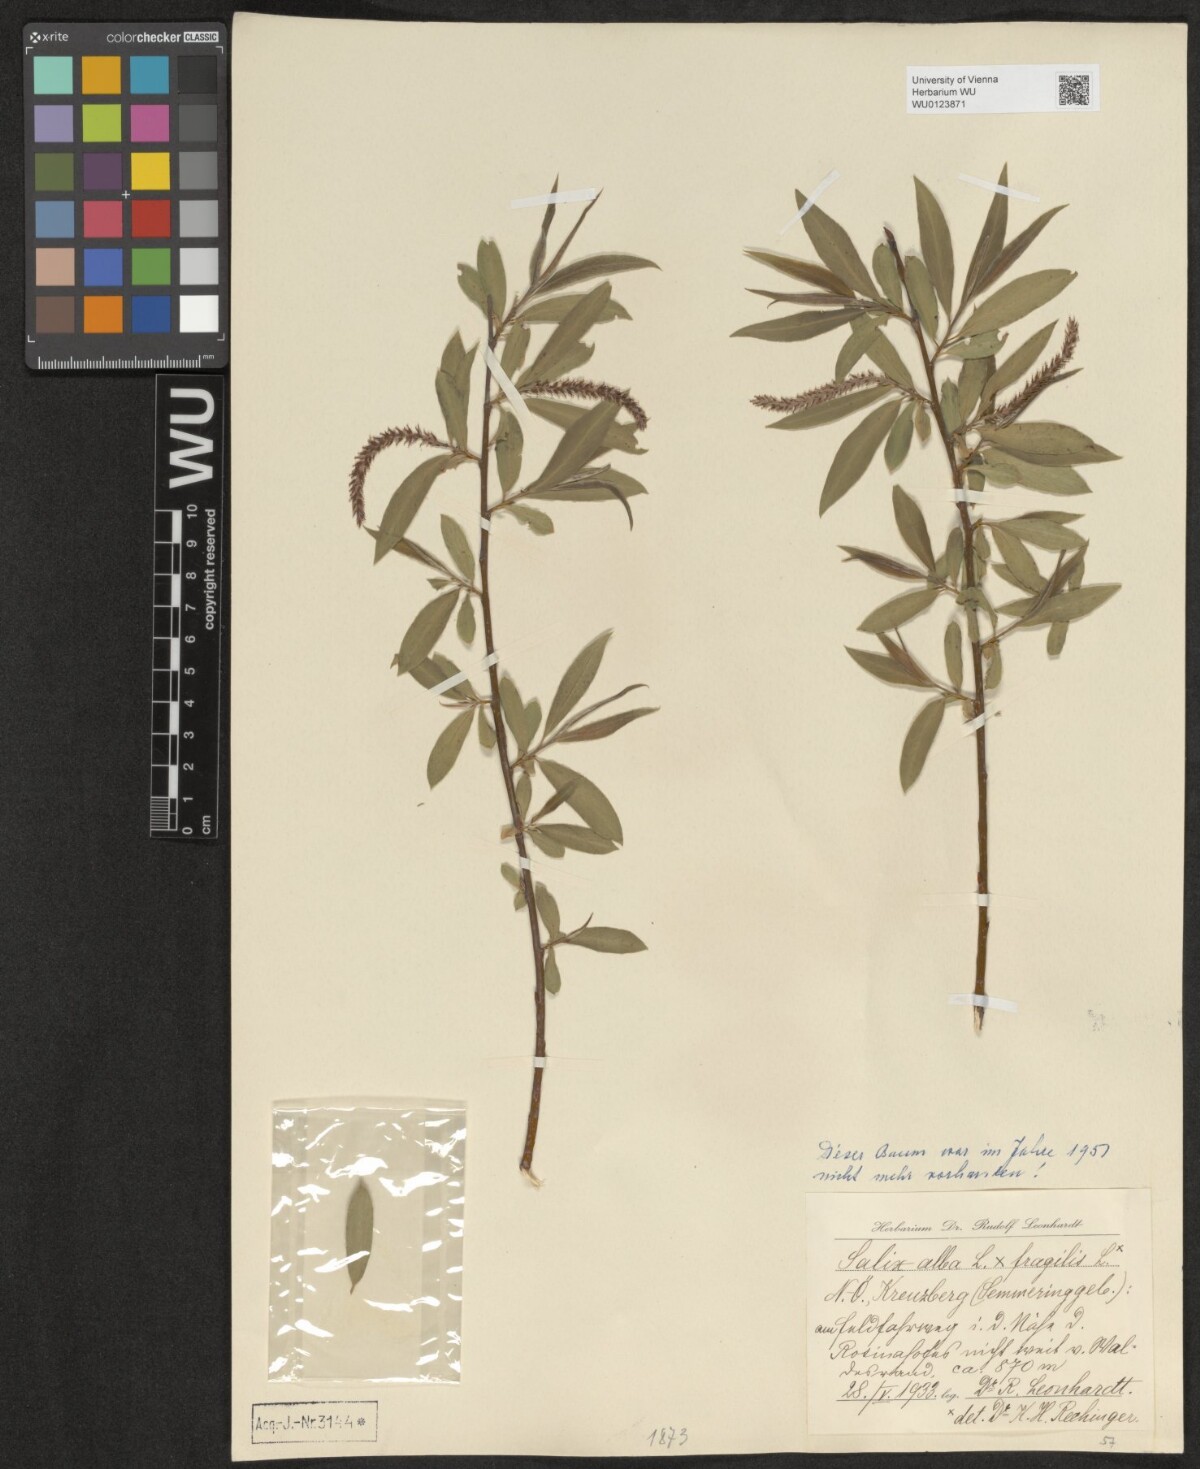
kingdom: Plantae
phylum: Tracheophyta
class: Magnoliopsida
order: Malpighiales
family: Salicaceae
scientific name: Salicaceae
